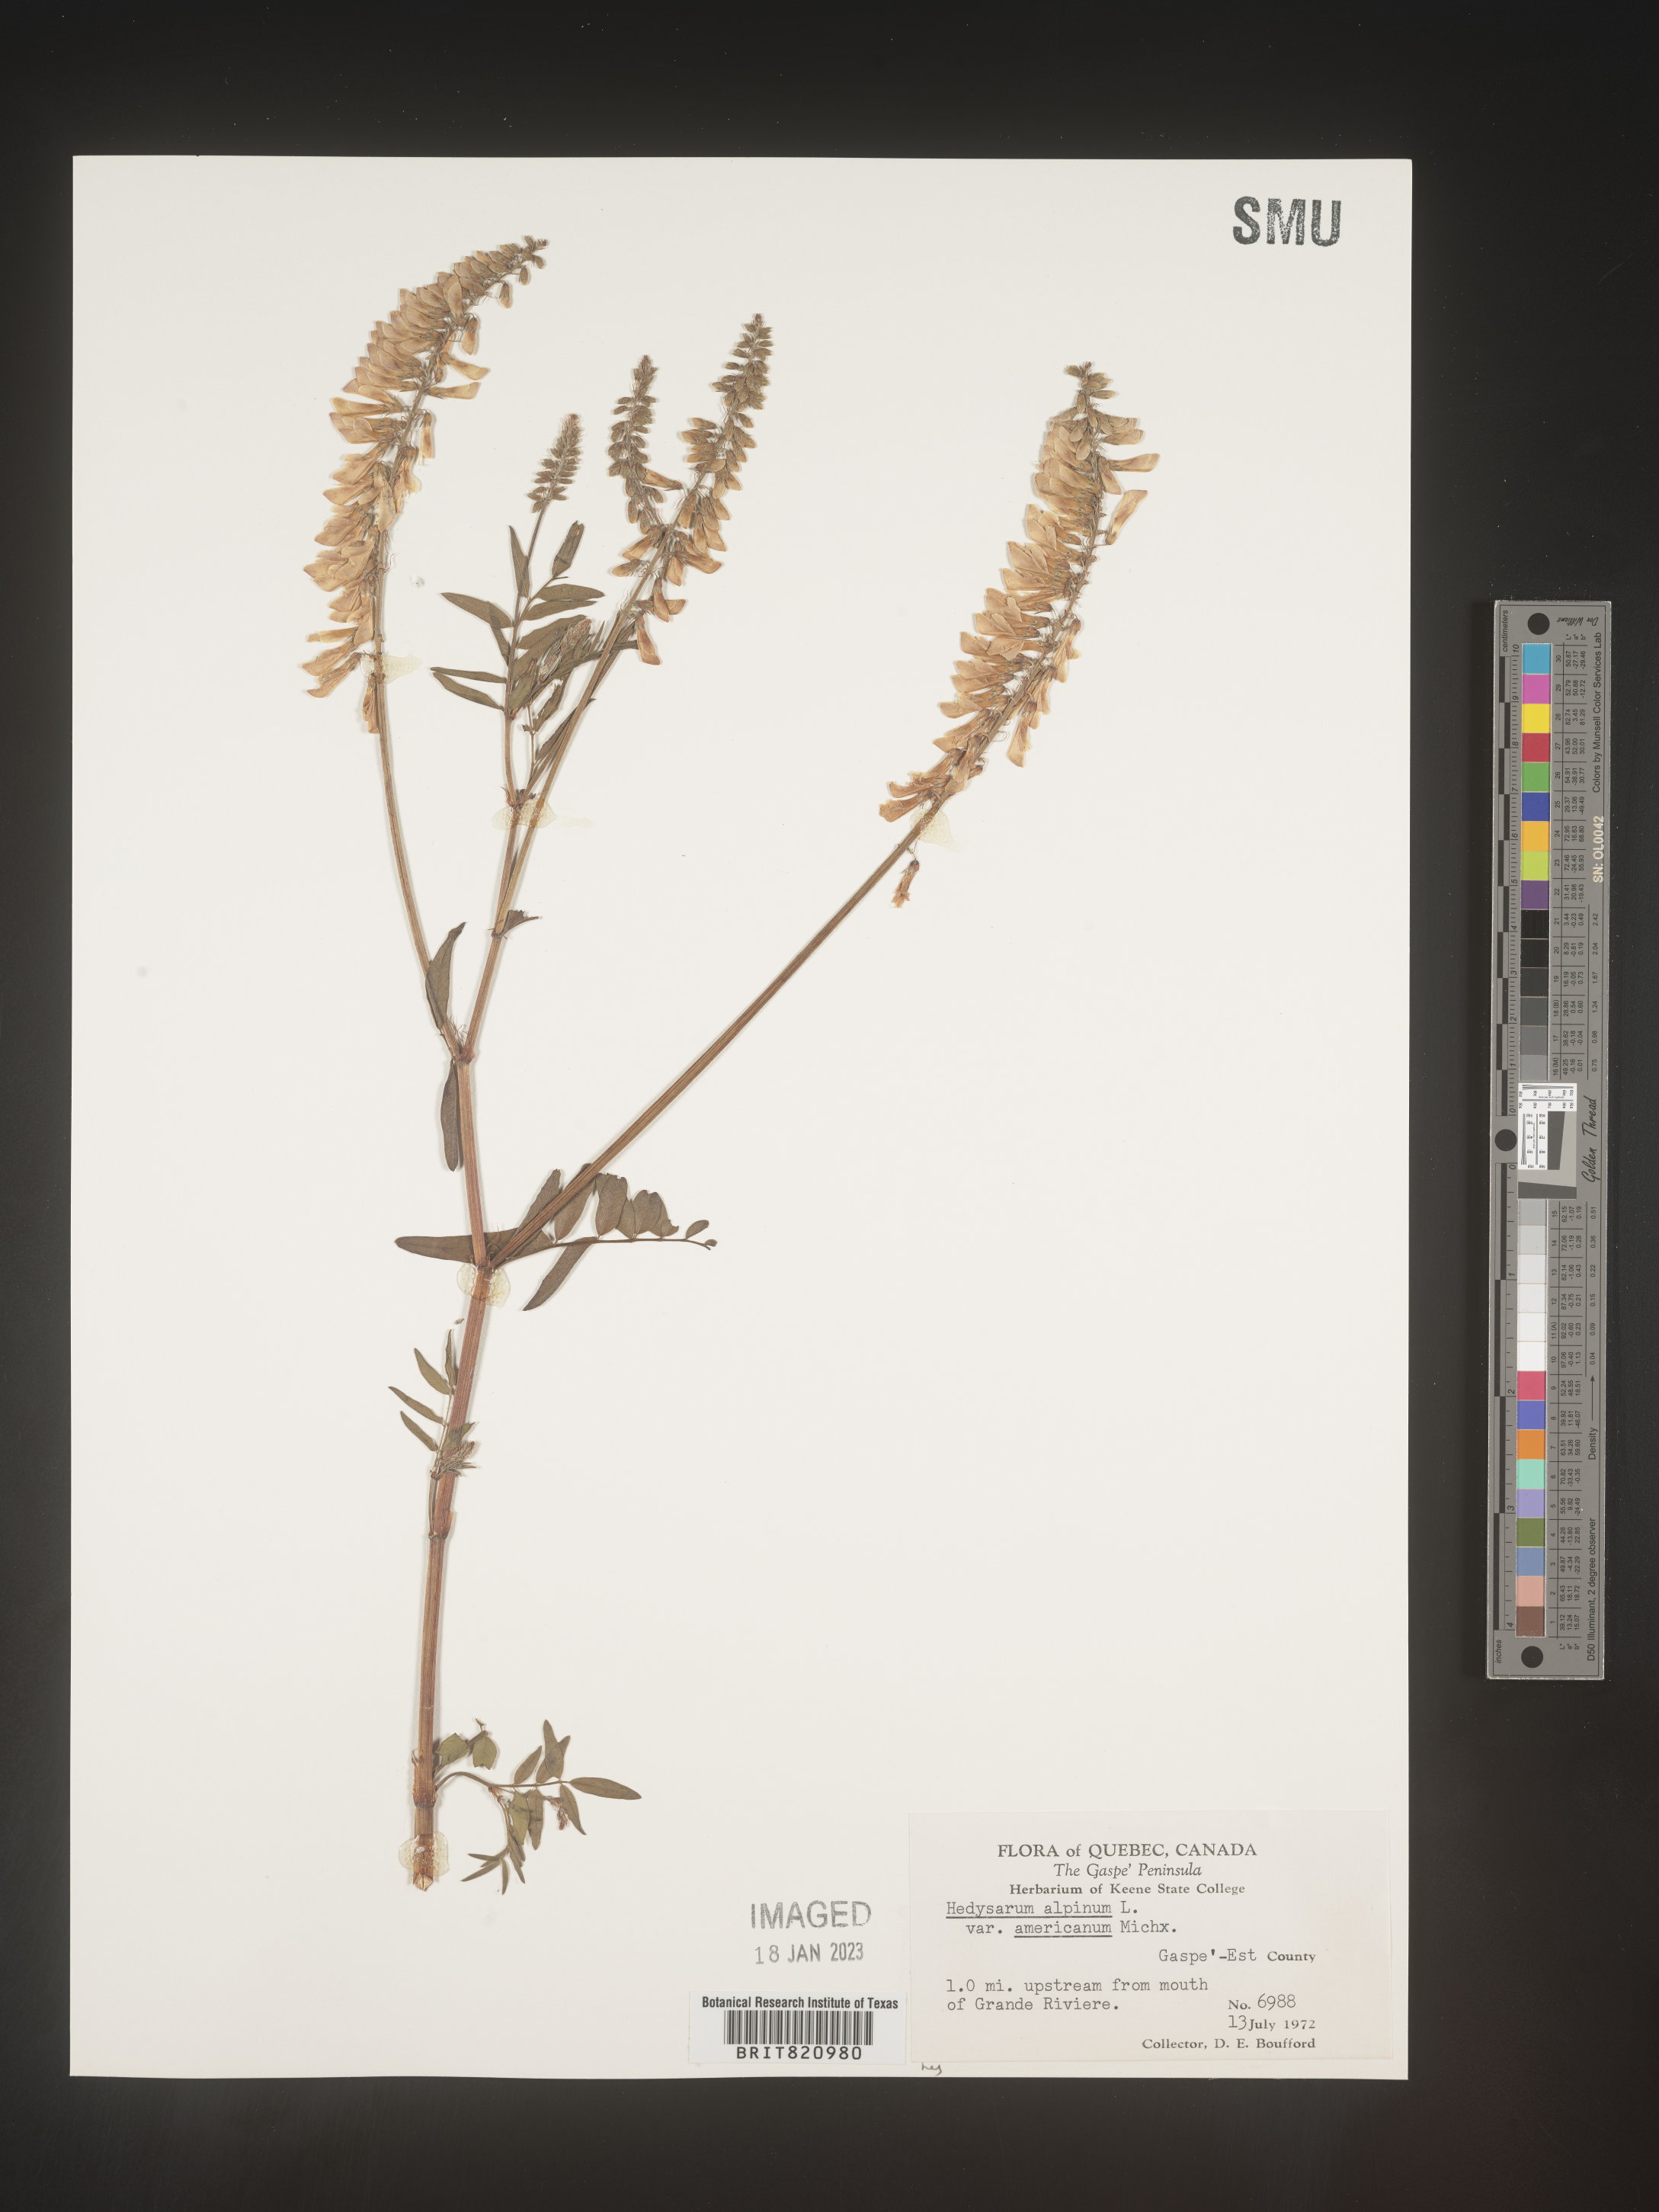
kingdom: Plantae
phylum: Tracheophyta
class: Magnoliopsida
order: Fabales
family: Fabaceae
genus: Hedysarum
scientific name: Hedysarum alpinum
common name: Alpine sweet-vetch
